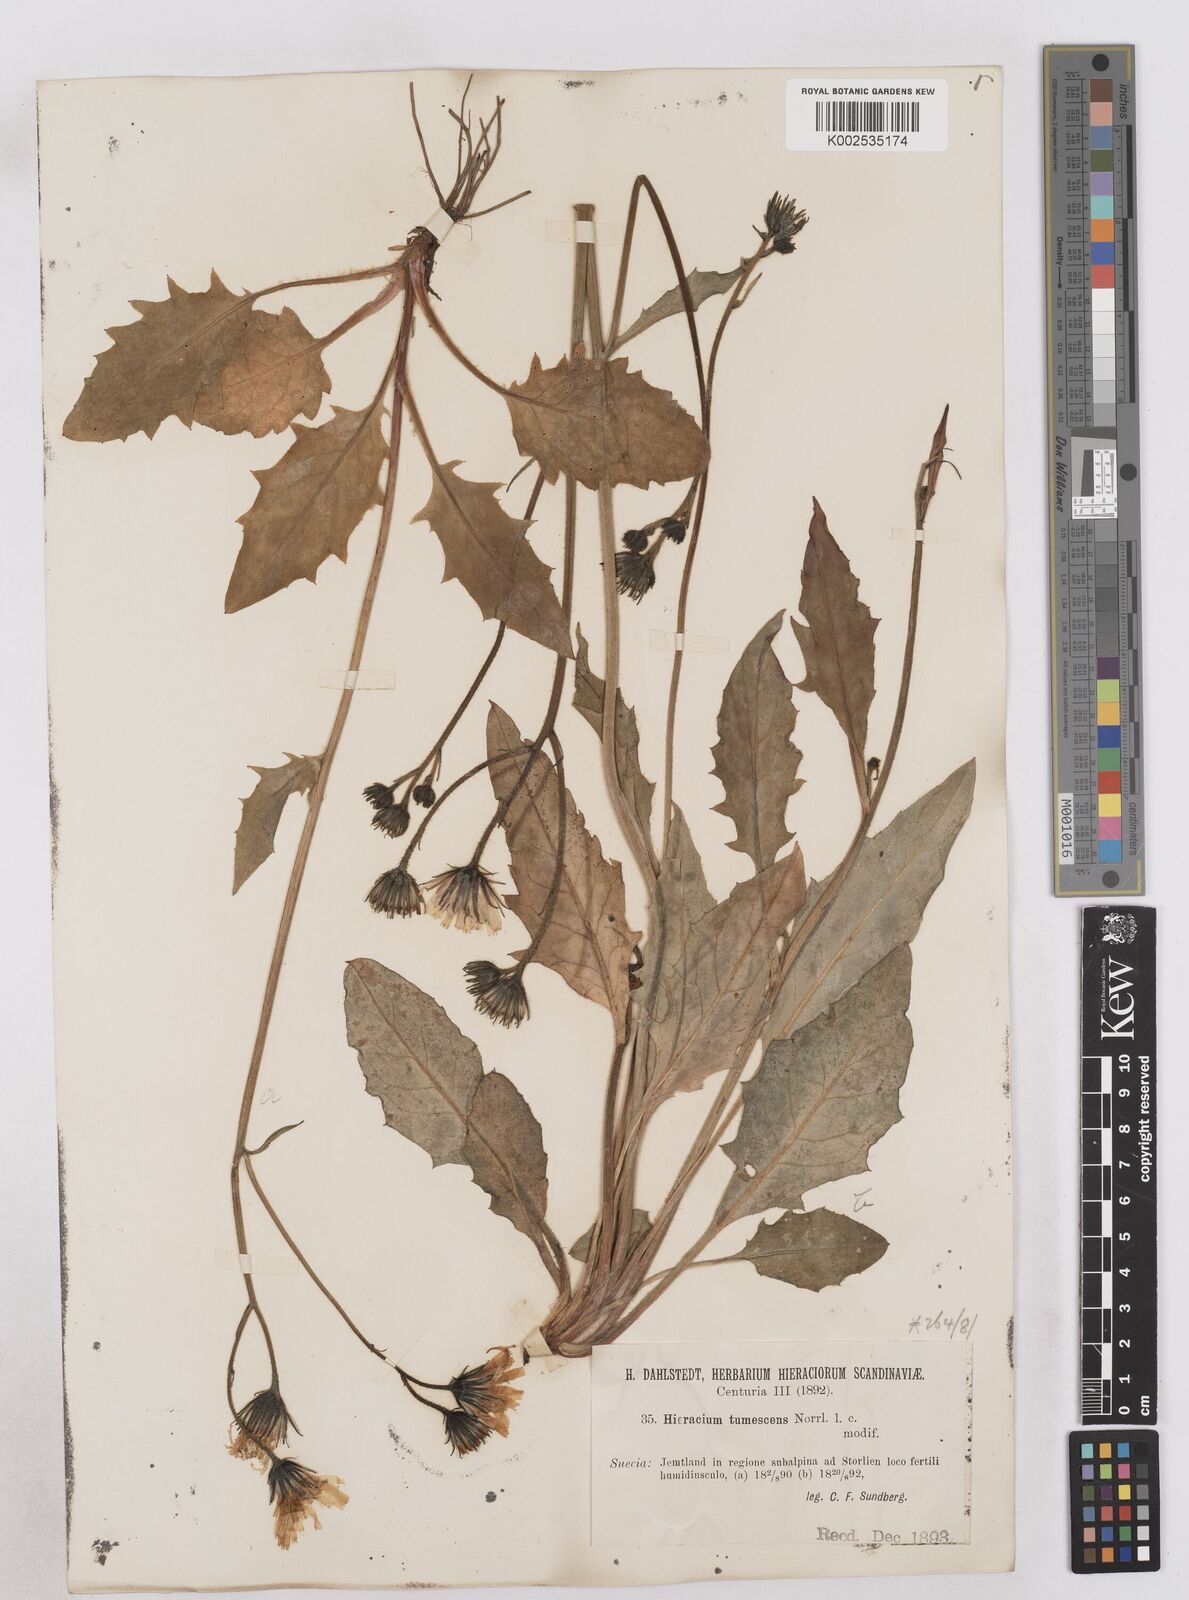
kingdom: Plantae
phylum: Tracheophyta
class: Magnoliopsida
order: Asterales
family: Asteraceae
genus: Hieracium
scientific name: Hieracium tumescens
